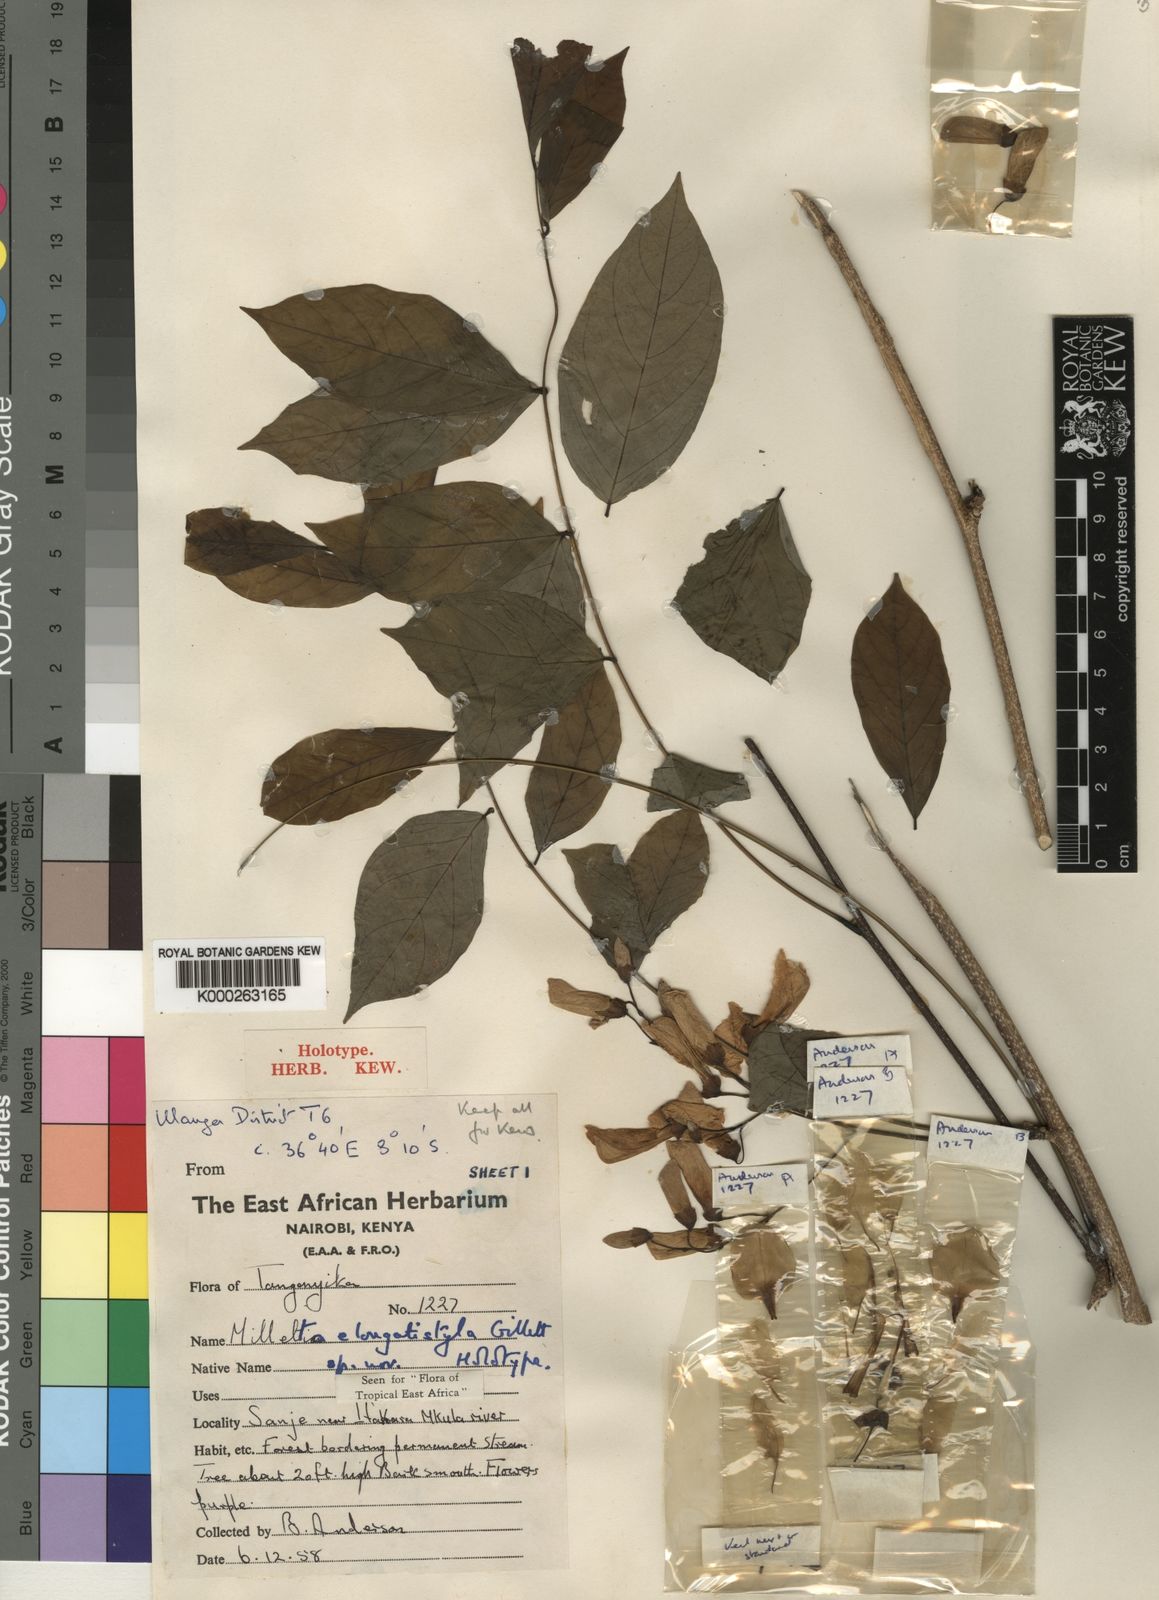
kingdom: Plantae
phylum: Tracheophyta
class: Magnoliopsida
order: Fabales
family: Fabaceae
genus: Millettia
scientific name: Millettia elongatistyla
